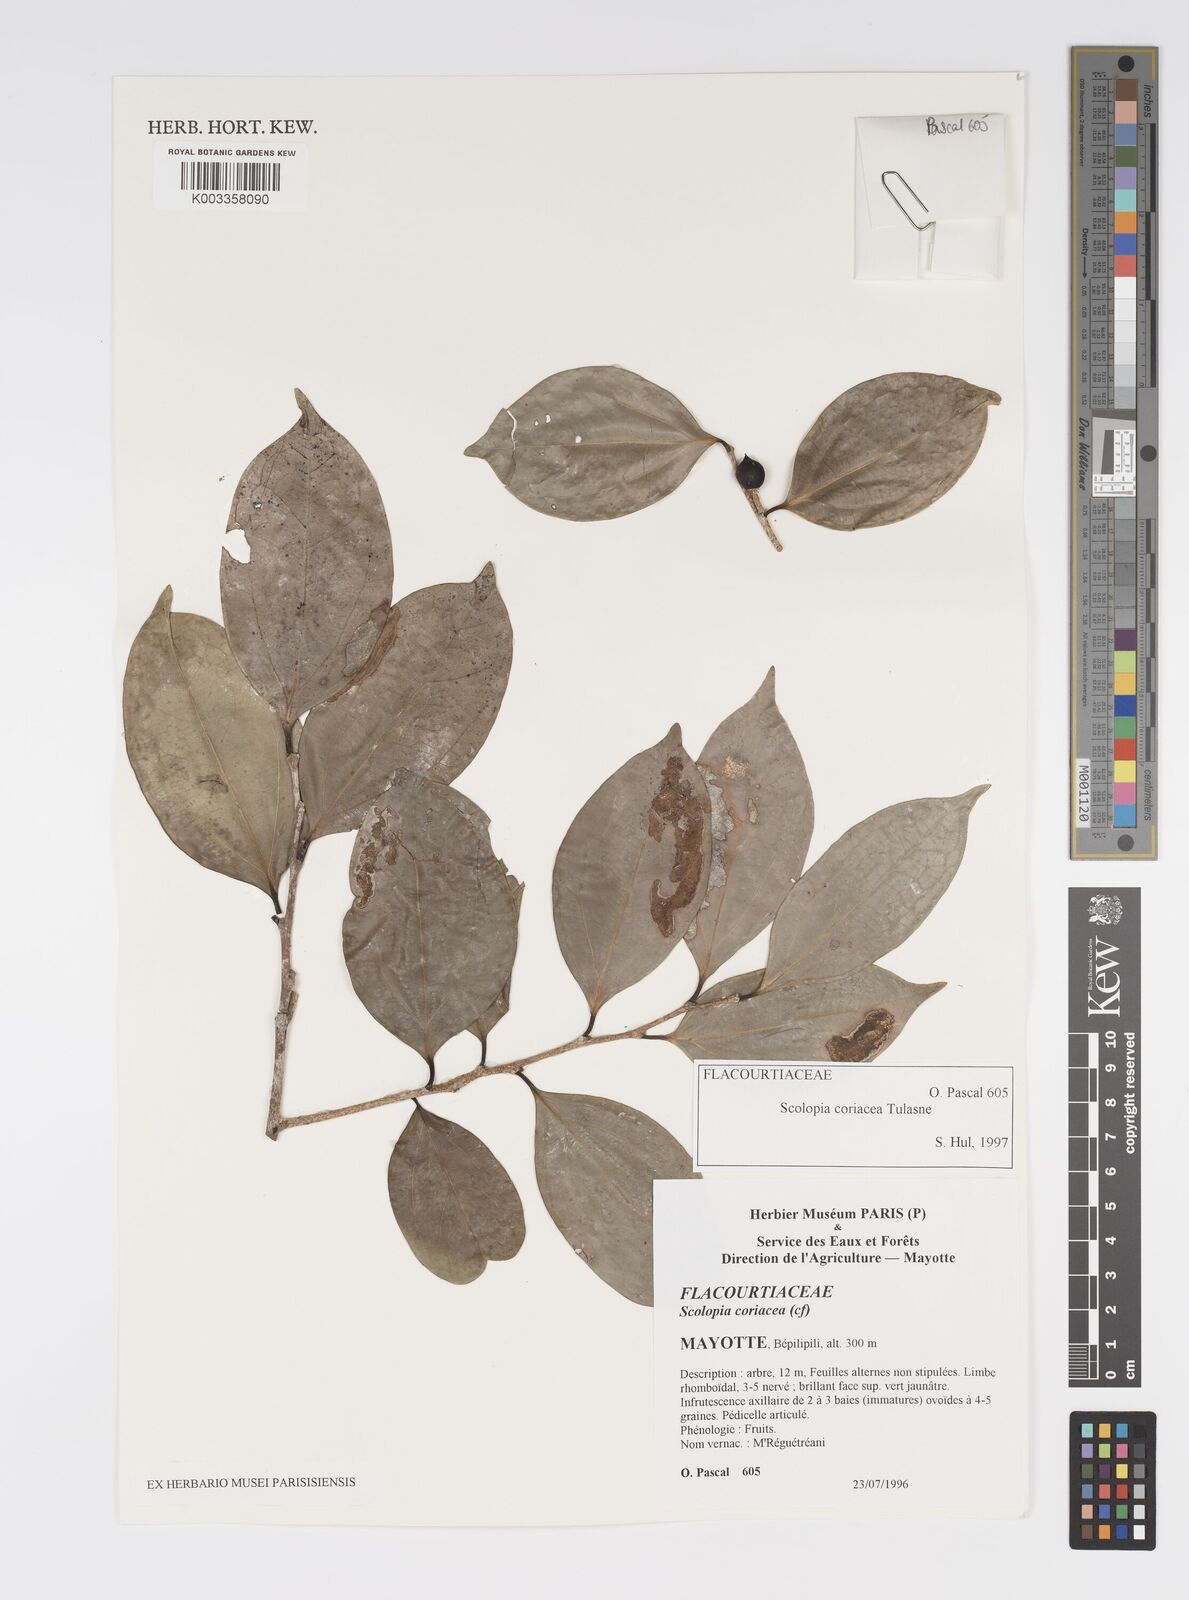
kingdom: Plantae
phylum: Tracheophyta
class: Magnoliopsida
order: Malpighiales
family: Salicaceae
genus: Scolopia
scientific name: Scolopia coriacea
